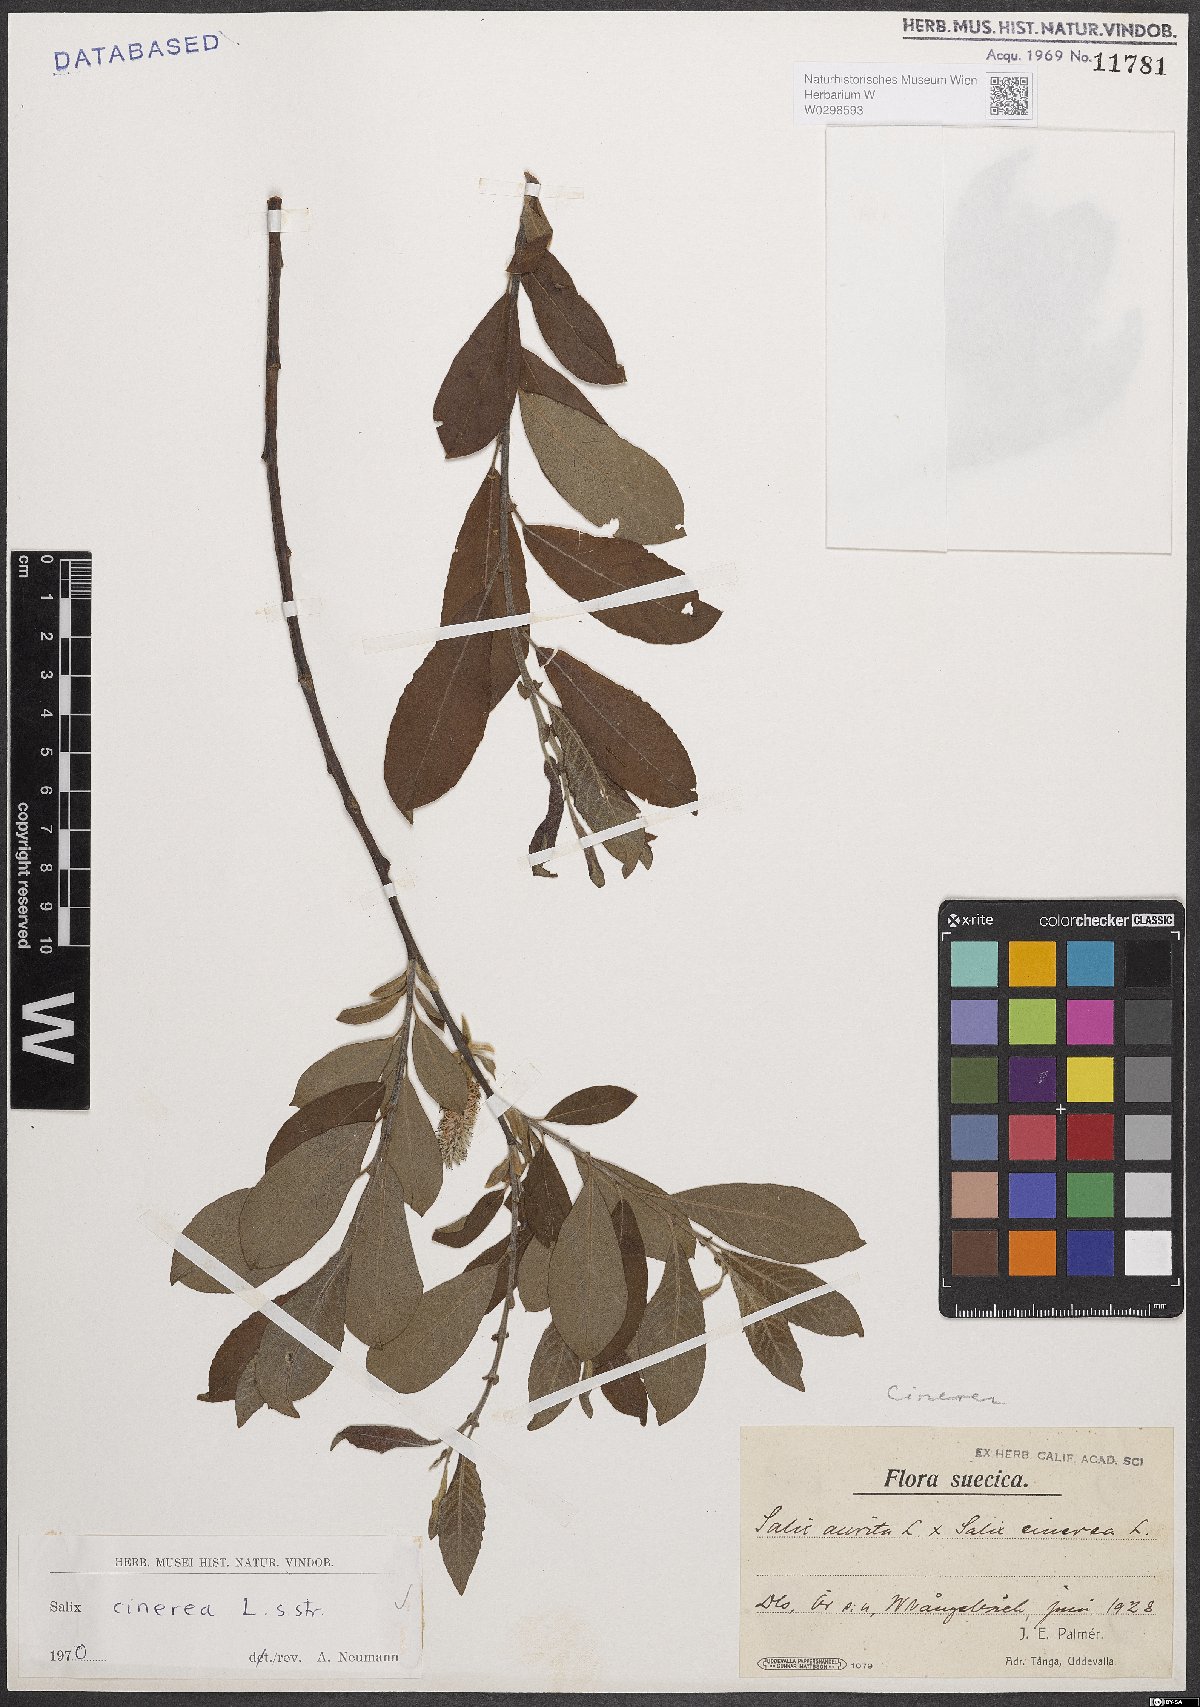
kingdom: Plantae
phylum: Tracheophyta
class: Magnoliopsida
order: Malpighiales
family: Salicaceae
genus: Salix
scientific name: Salix cinerea
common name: Common sallow
